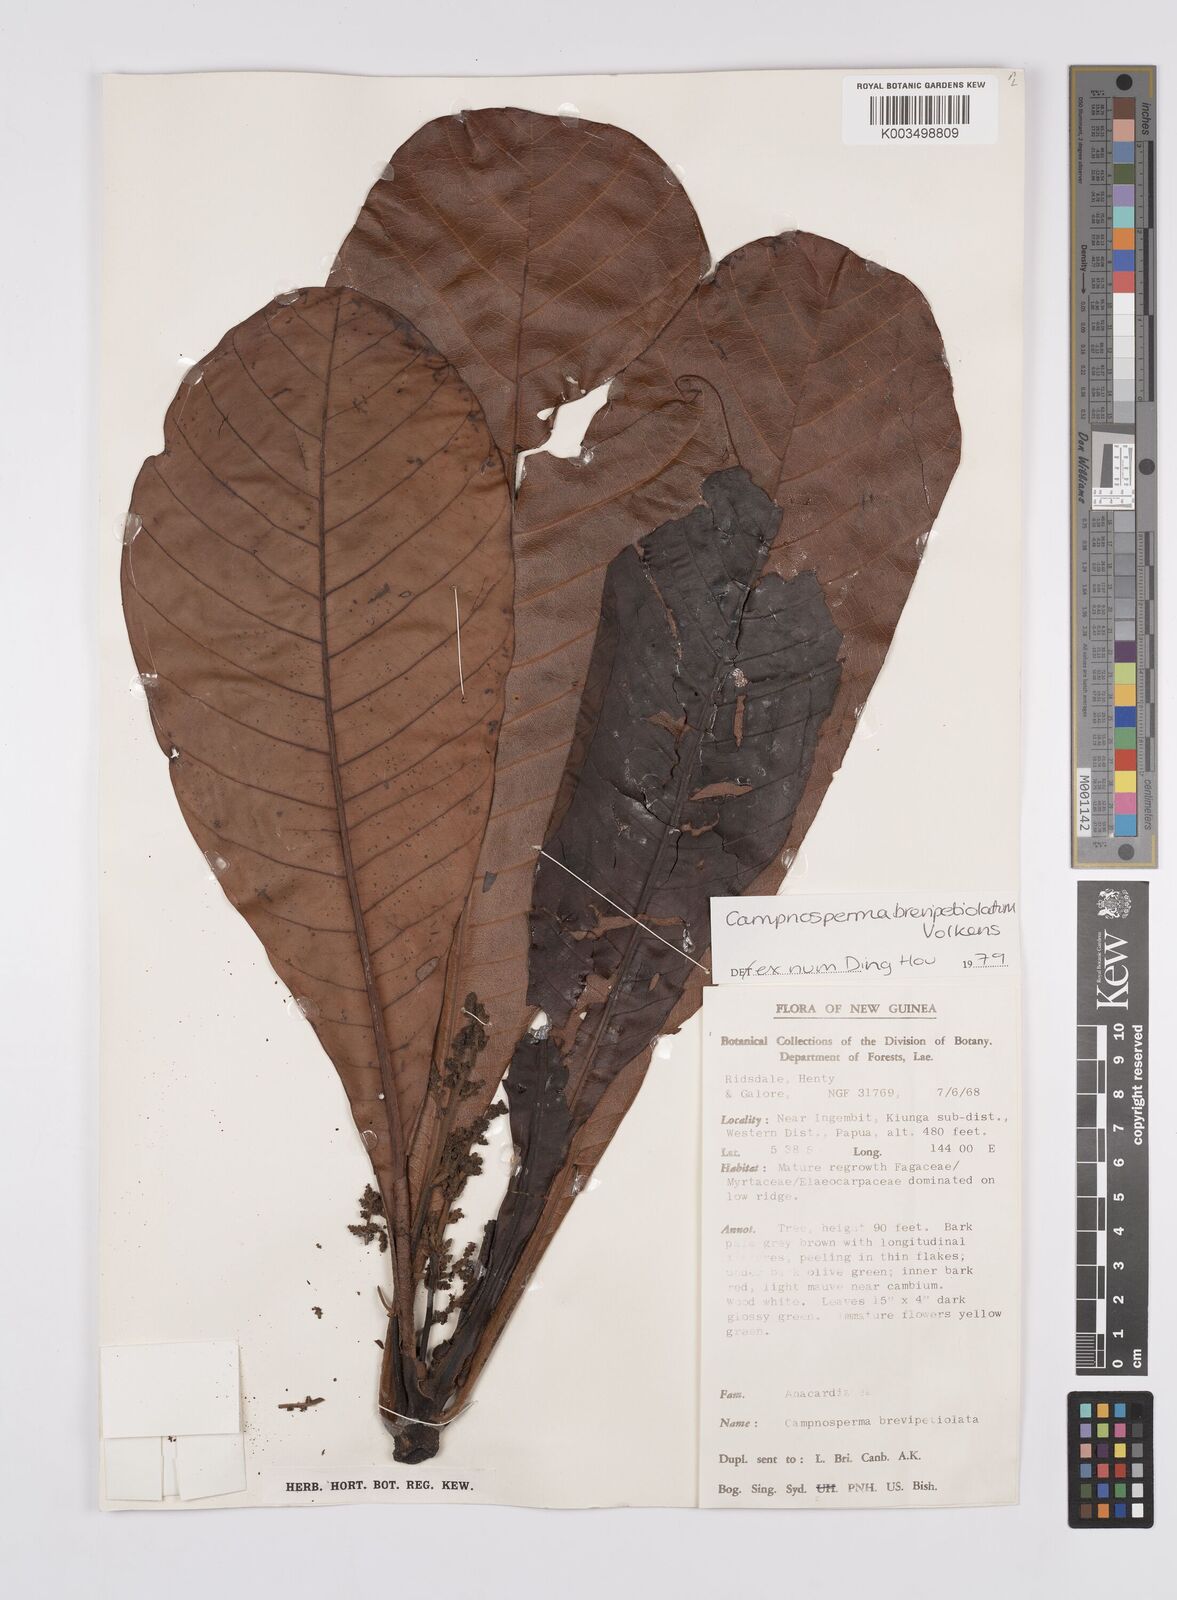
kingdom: Plantae
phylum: Tracheophyta
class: Magnoliopsida
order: Sapindales
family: Anacardiaceae
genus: Campnosperma
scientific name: Campnosperma brevipetiolatum
